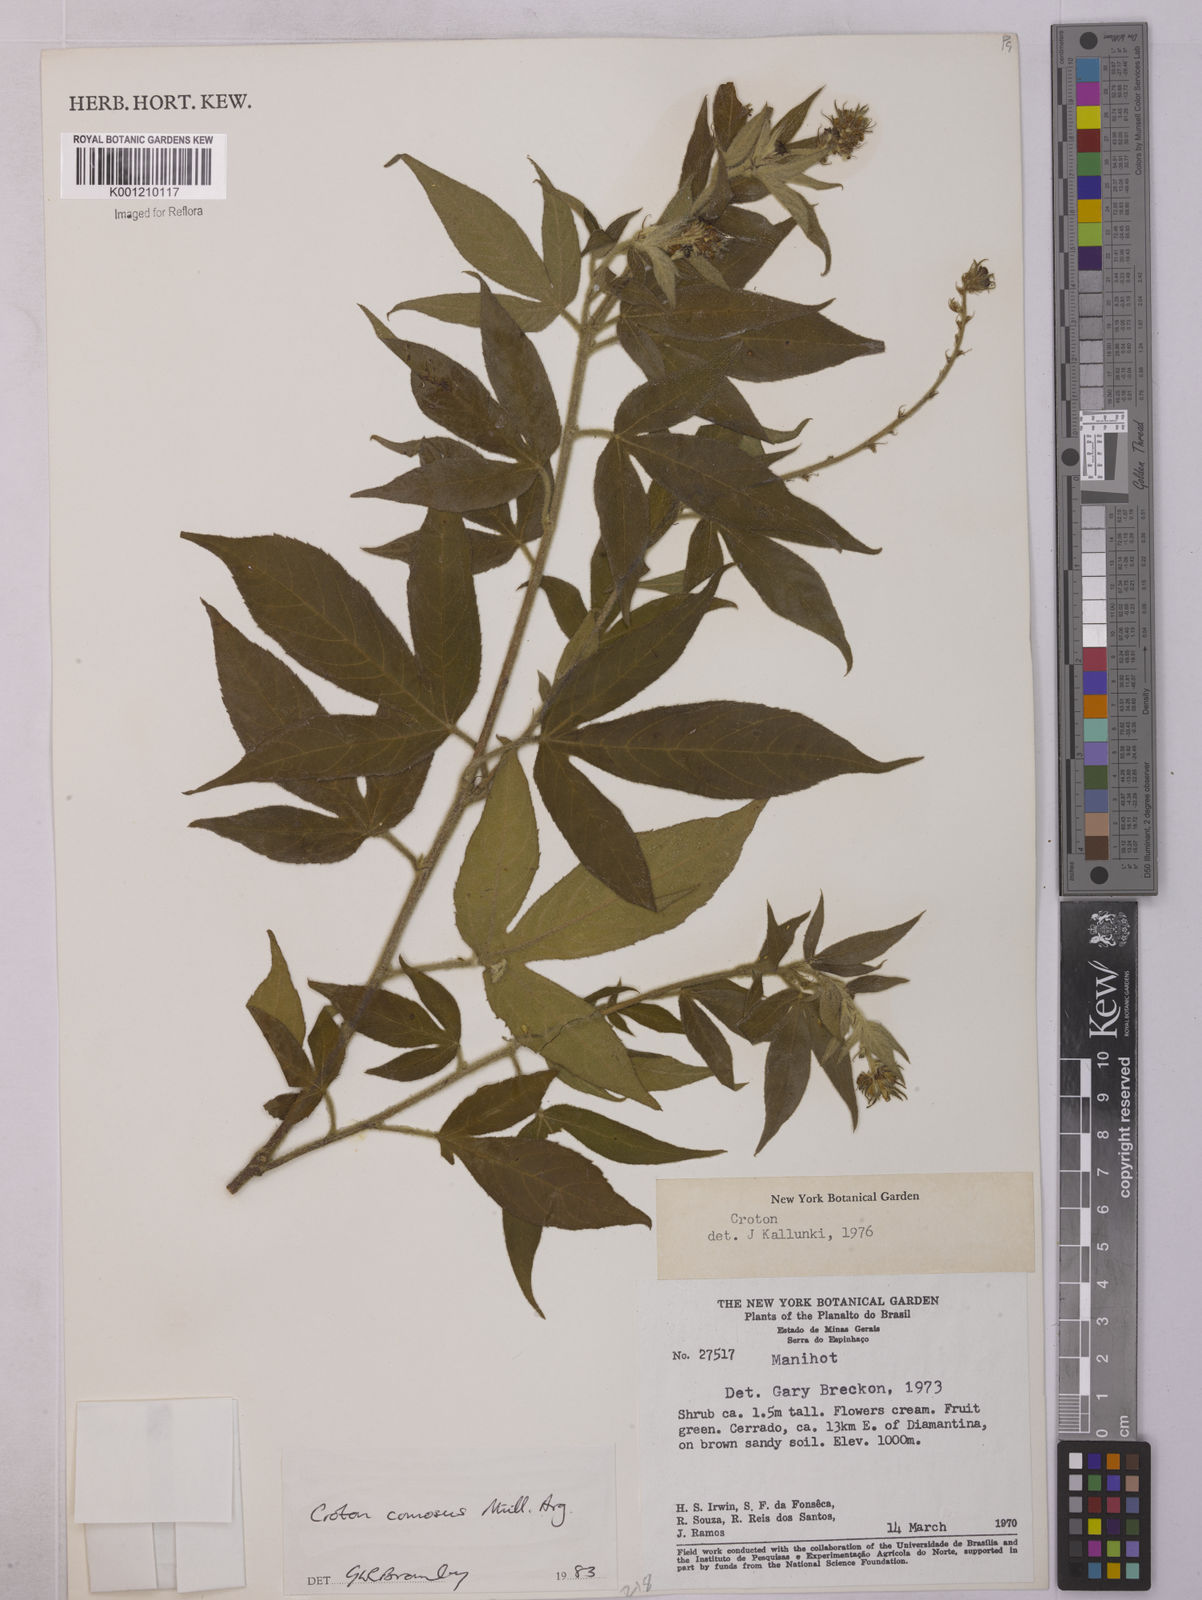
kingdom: Plantae
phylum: Tracheophyta
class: Magnoliopsida
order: Malpighiales
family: Euphorbiaceae
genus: Astraea
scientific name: Astraea
